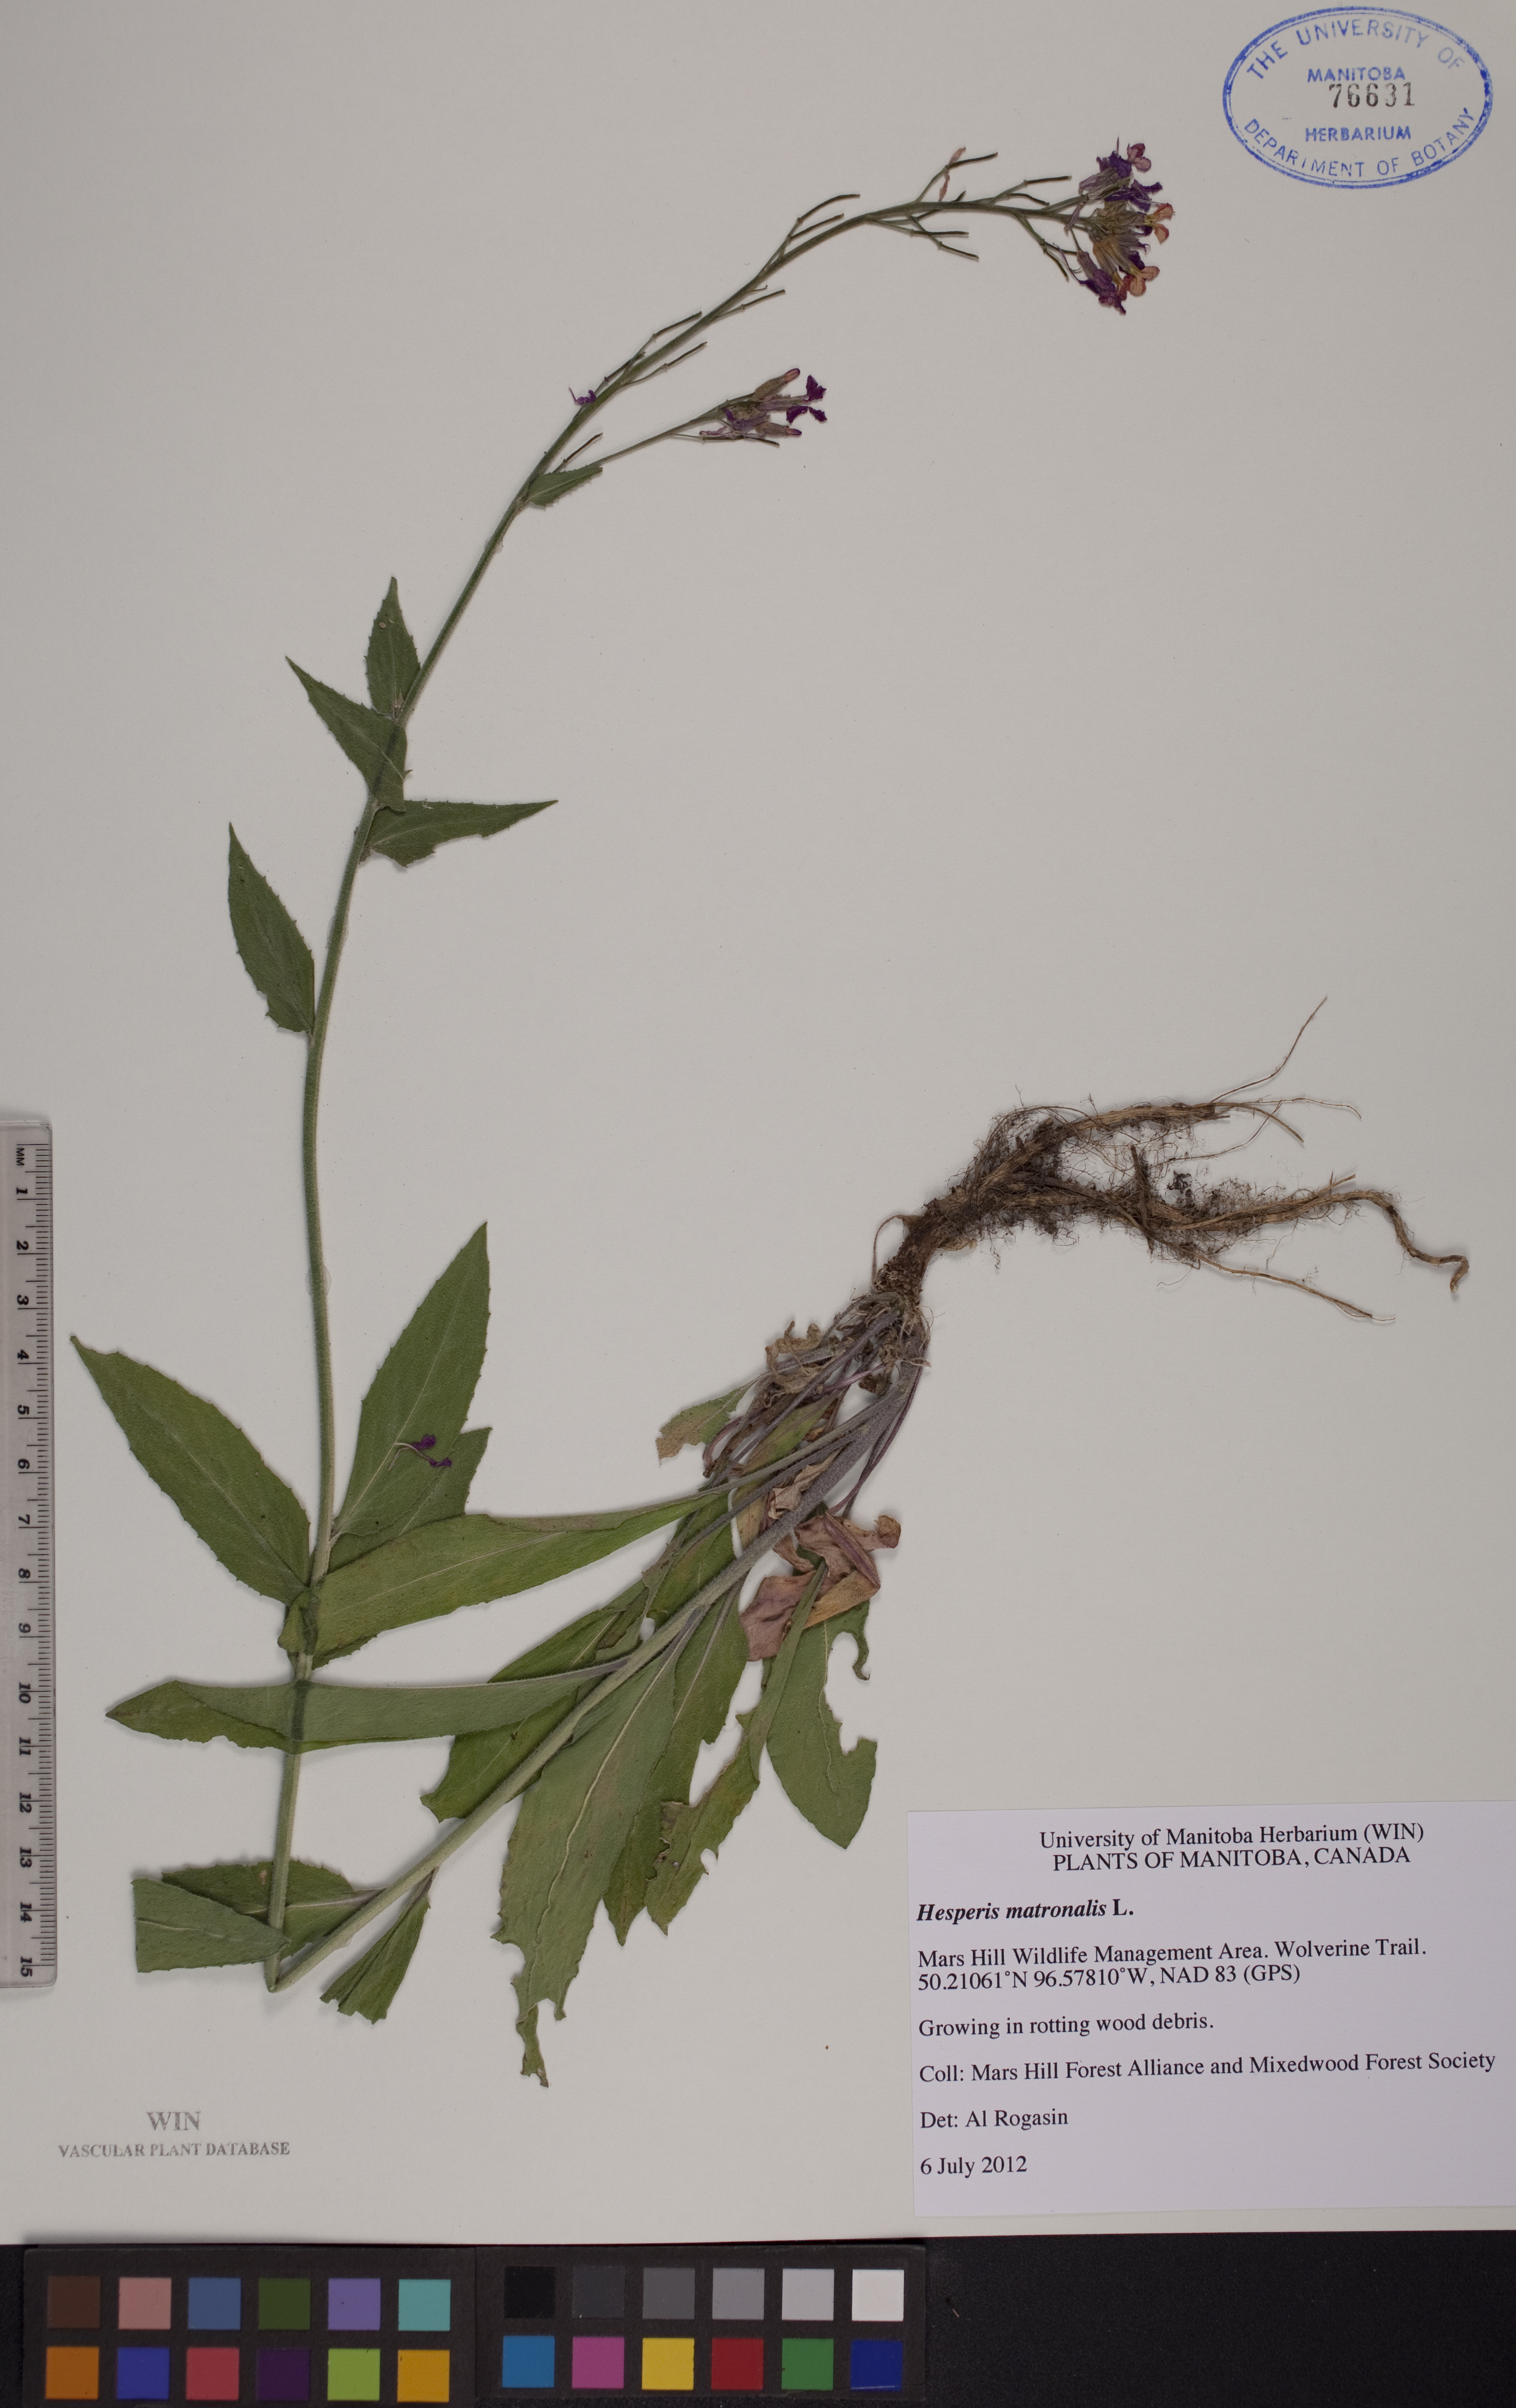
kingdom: Plantae
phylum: Tracheophyta
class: Magnoliopsida
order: Brassicales
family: Brassicaceae
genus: Hesperis
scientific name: Hesperis matronalis
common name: Dame's-violet
